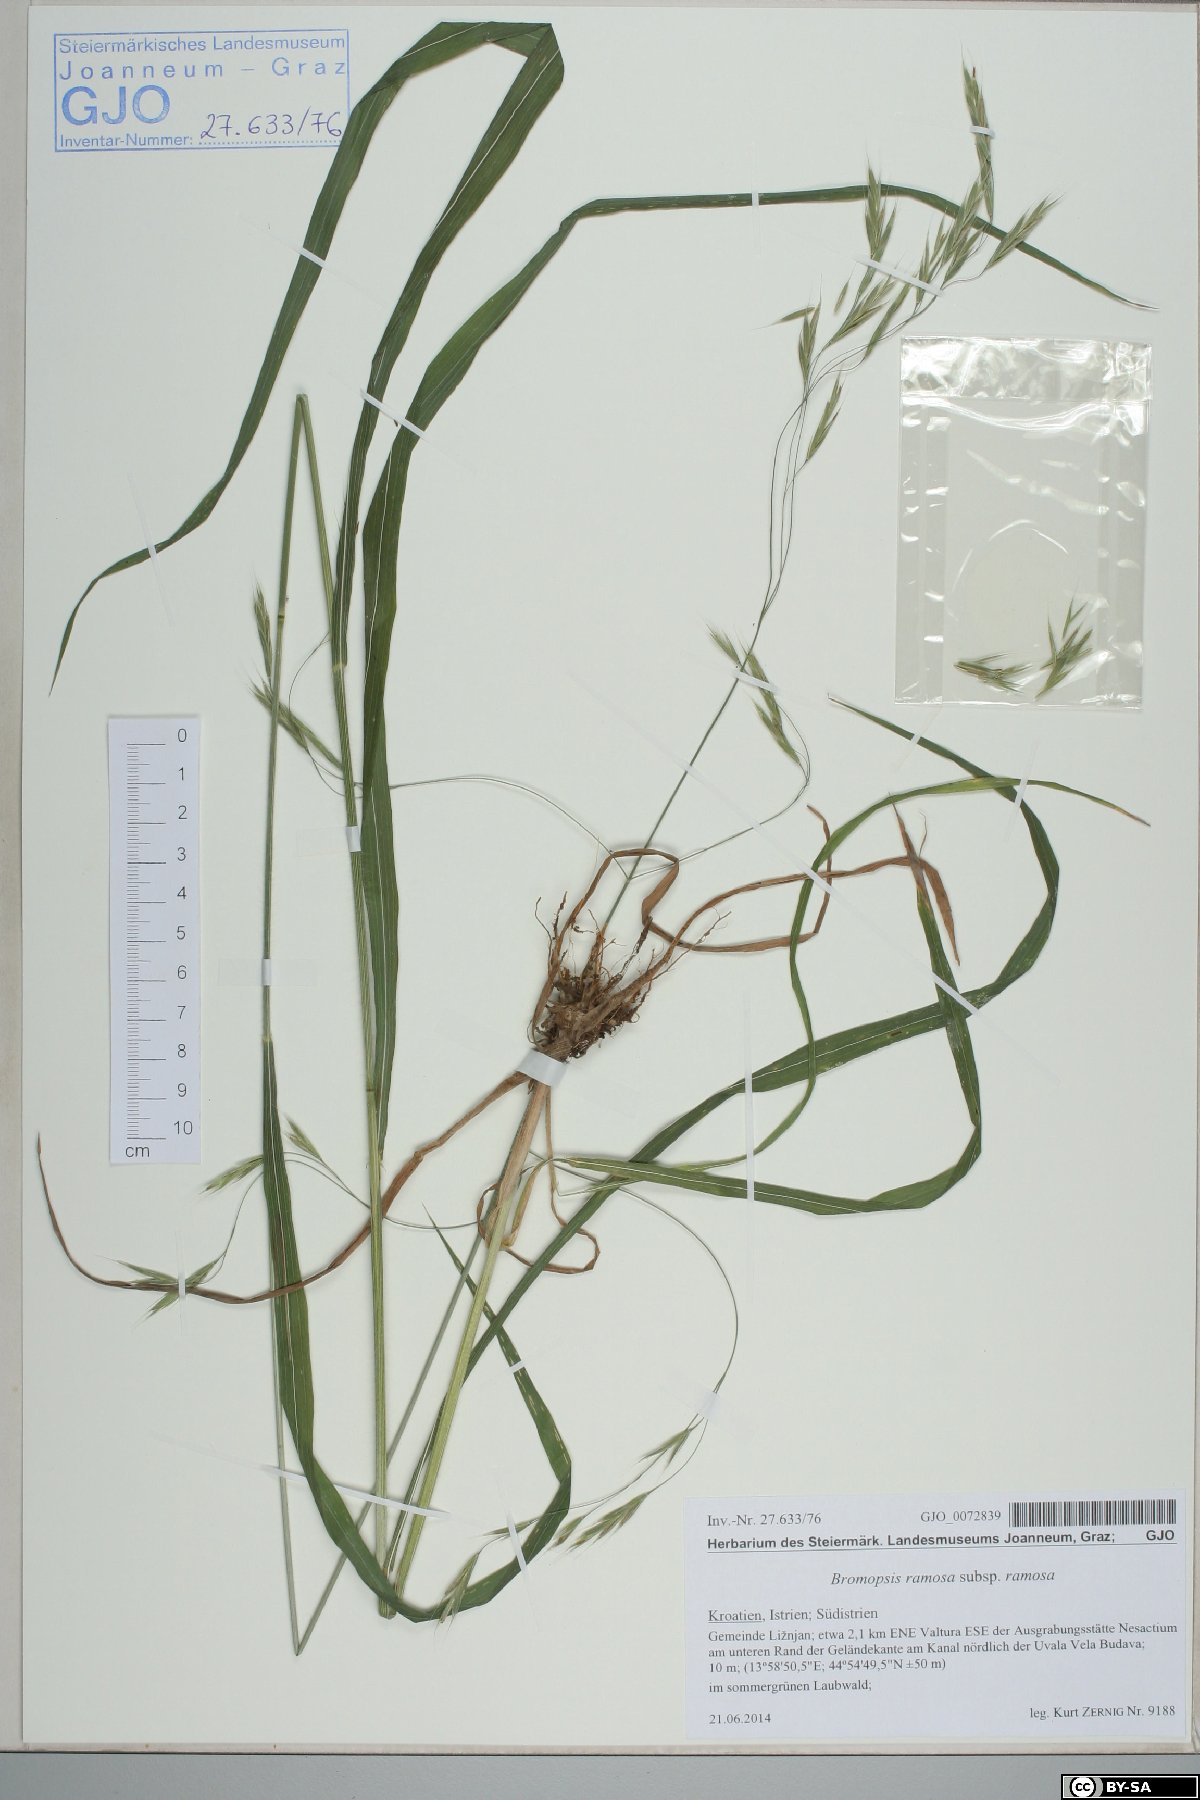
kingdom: Plantae
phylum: Tracheophyta
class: Liliopsida
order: Poales
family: Poaceae
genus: Bromus
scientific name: Bromus ramosus
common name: Hairy brome
